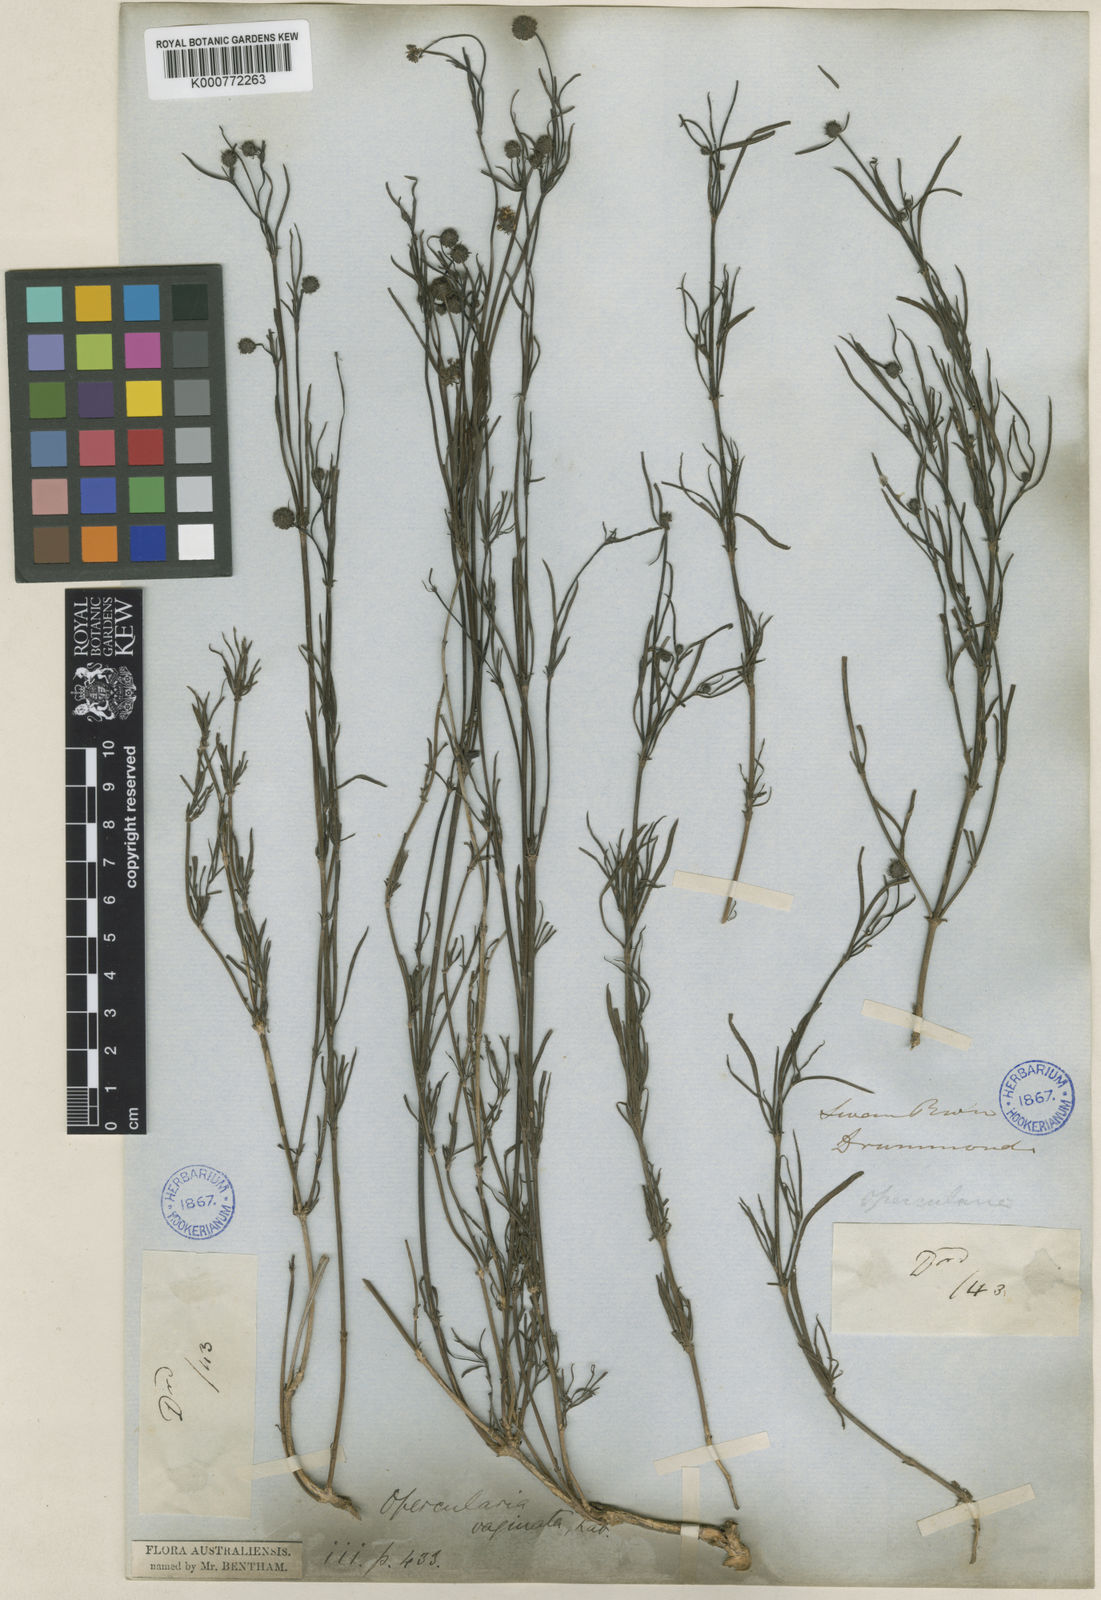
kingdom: Plantae
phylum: Tracheophyta
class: Magnoliopsida
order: Gentianales
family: Rubiaceae
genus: Opercularia
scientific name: Opercularia vaginata
